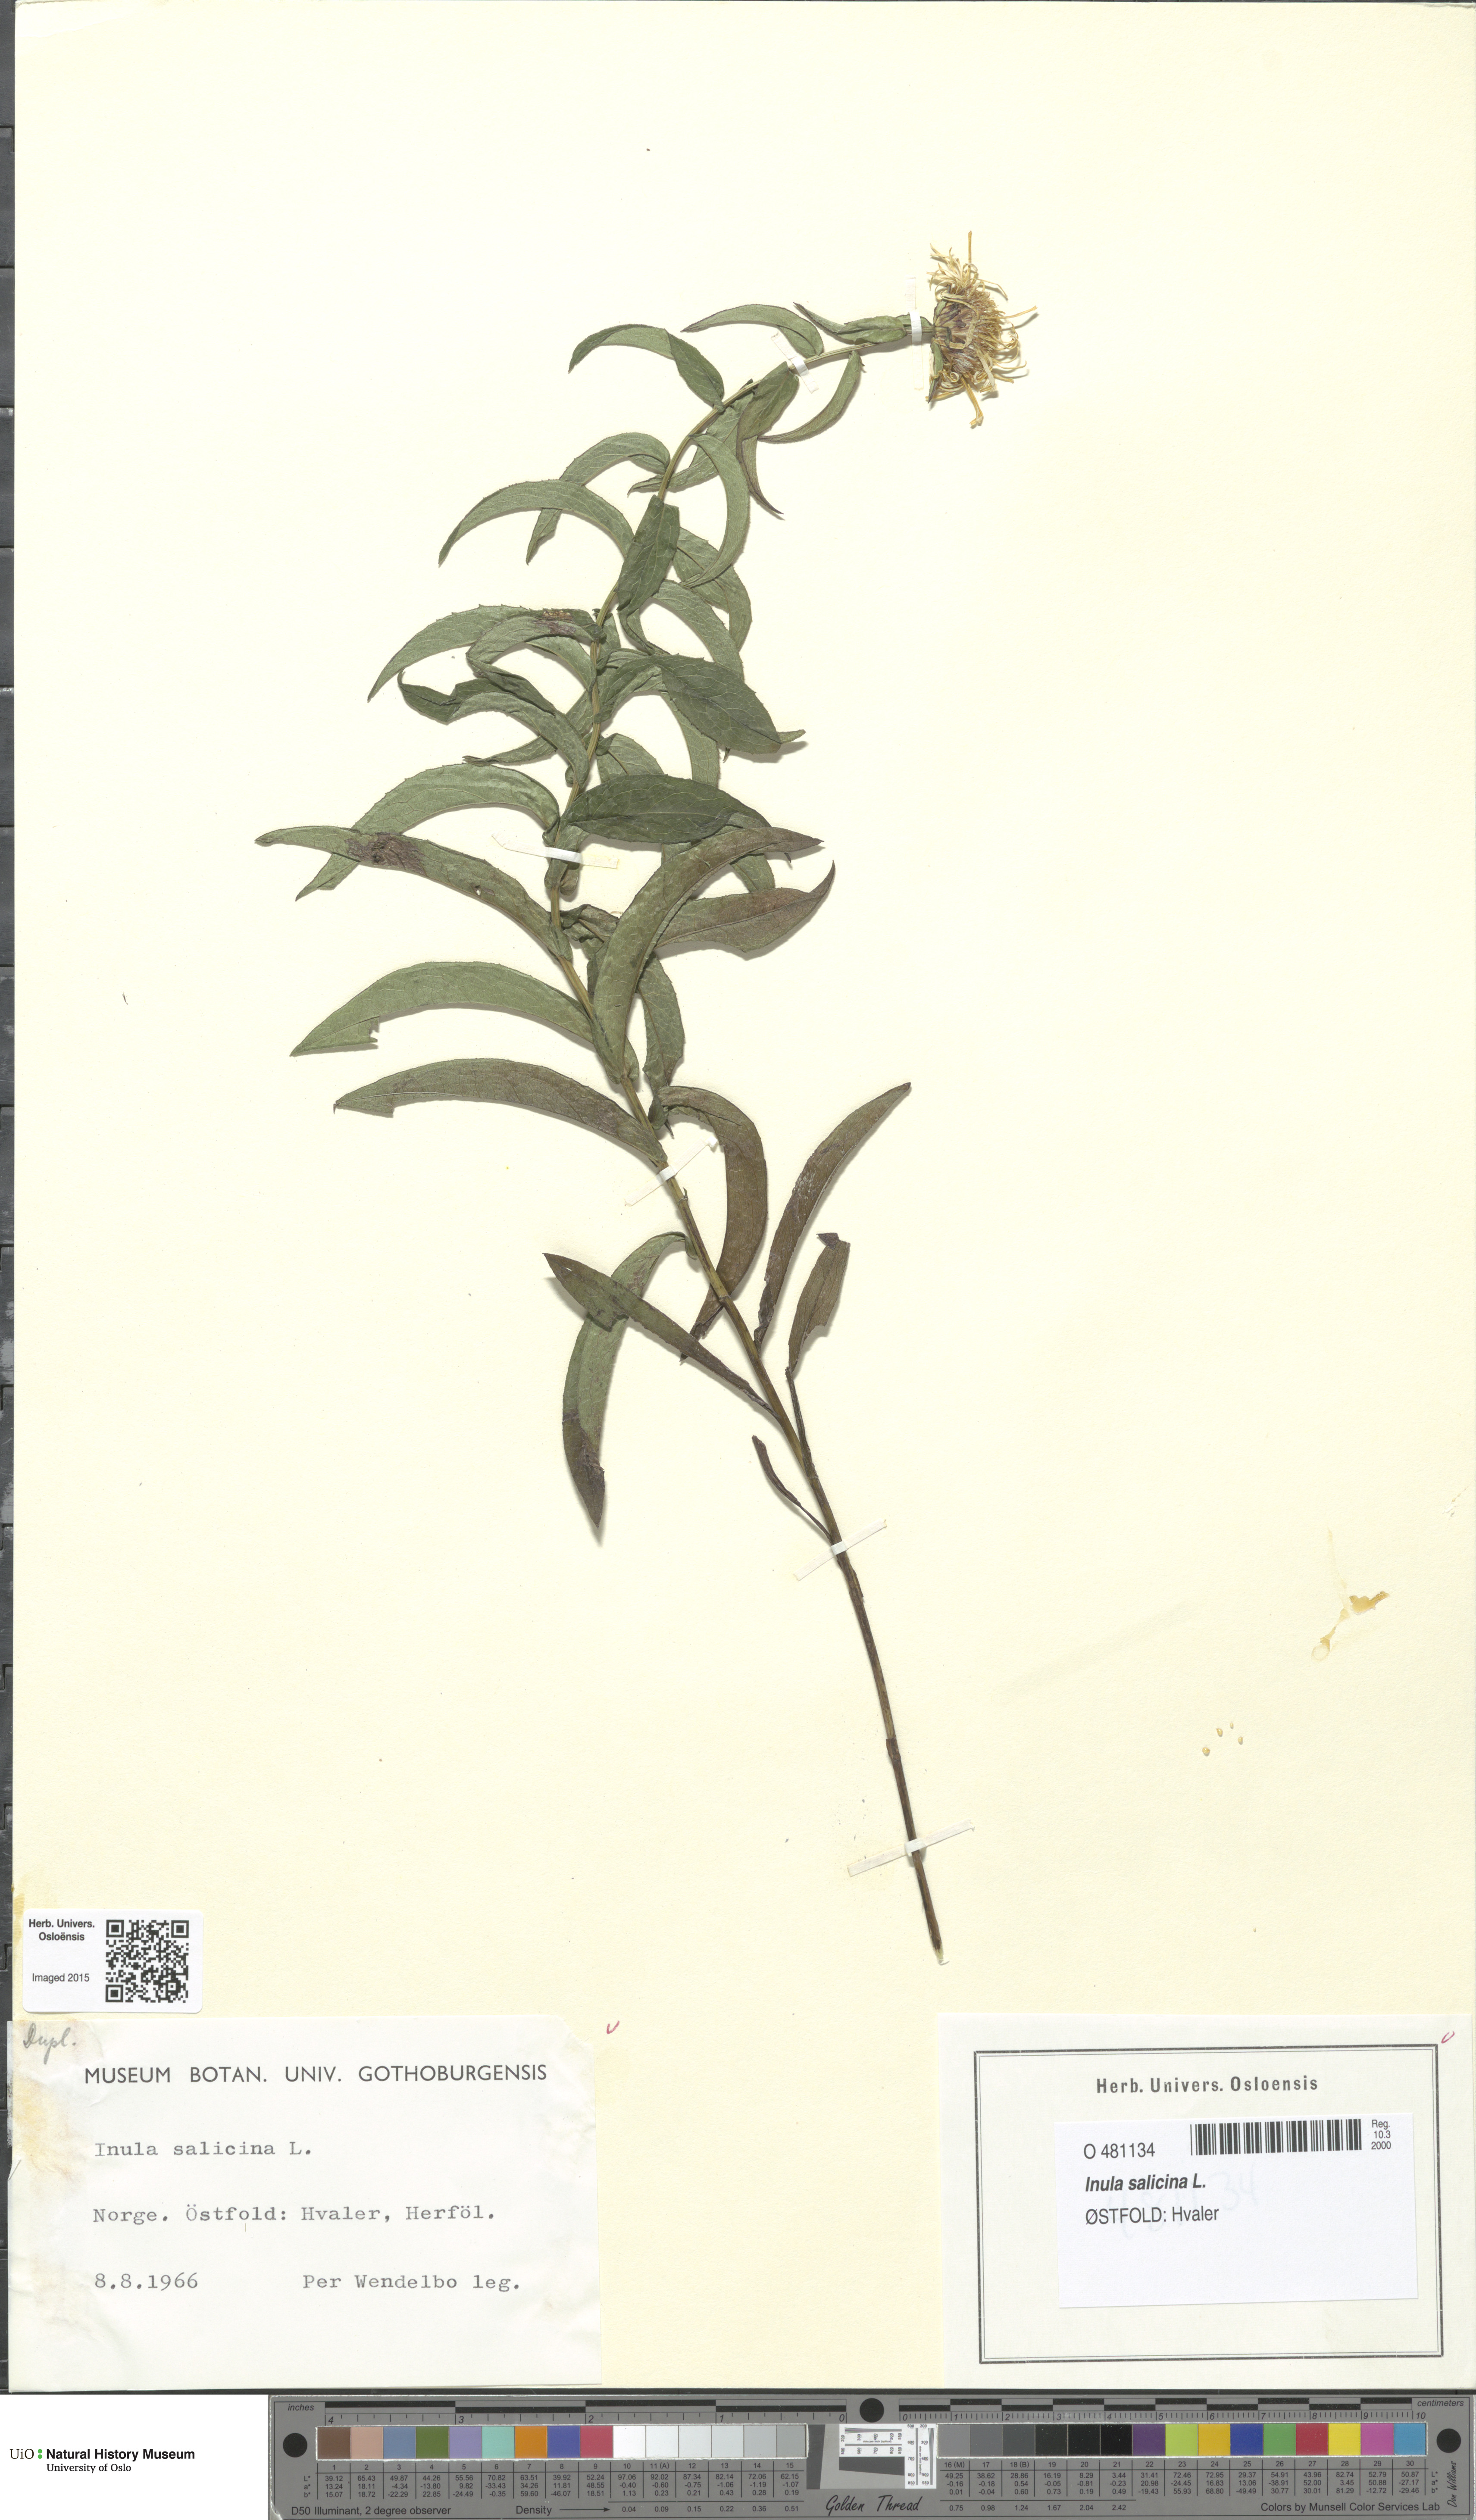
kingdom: Plantae
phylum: Tracheophyta
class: Magnoliopsida
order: Asterales
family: Asteraceae
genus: Pentanema
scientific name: Pentanema salicinum
